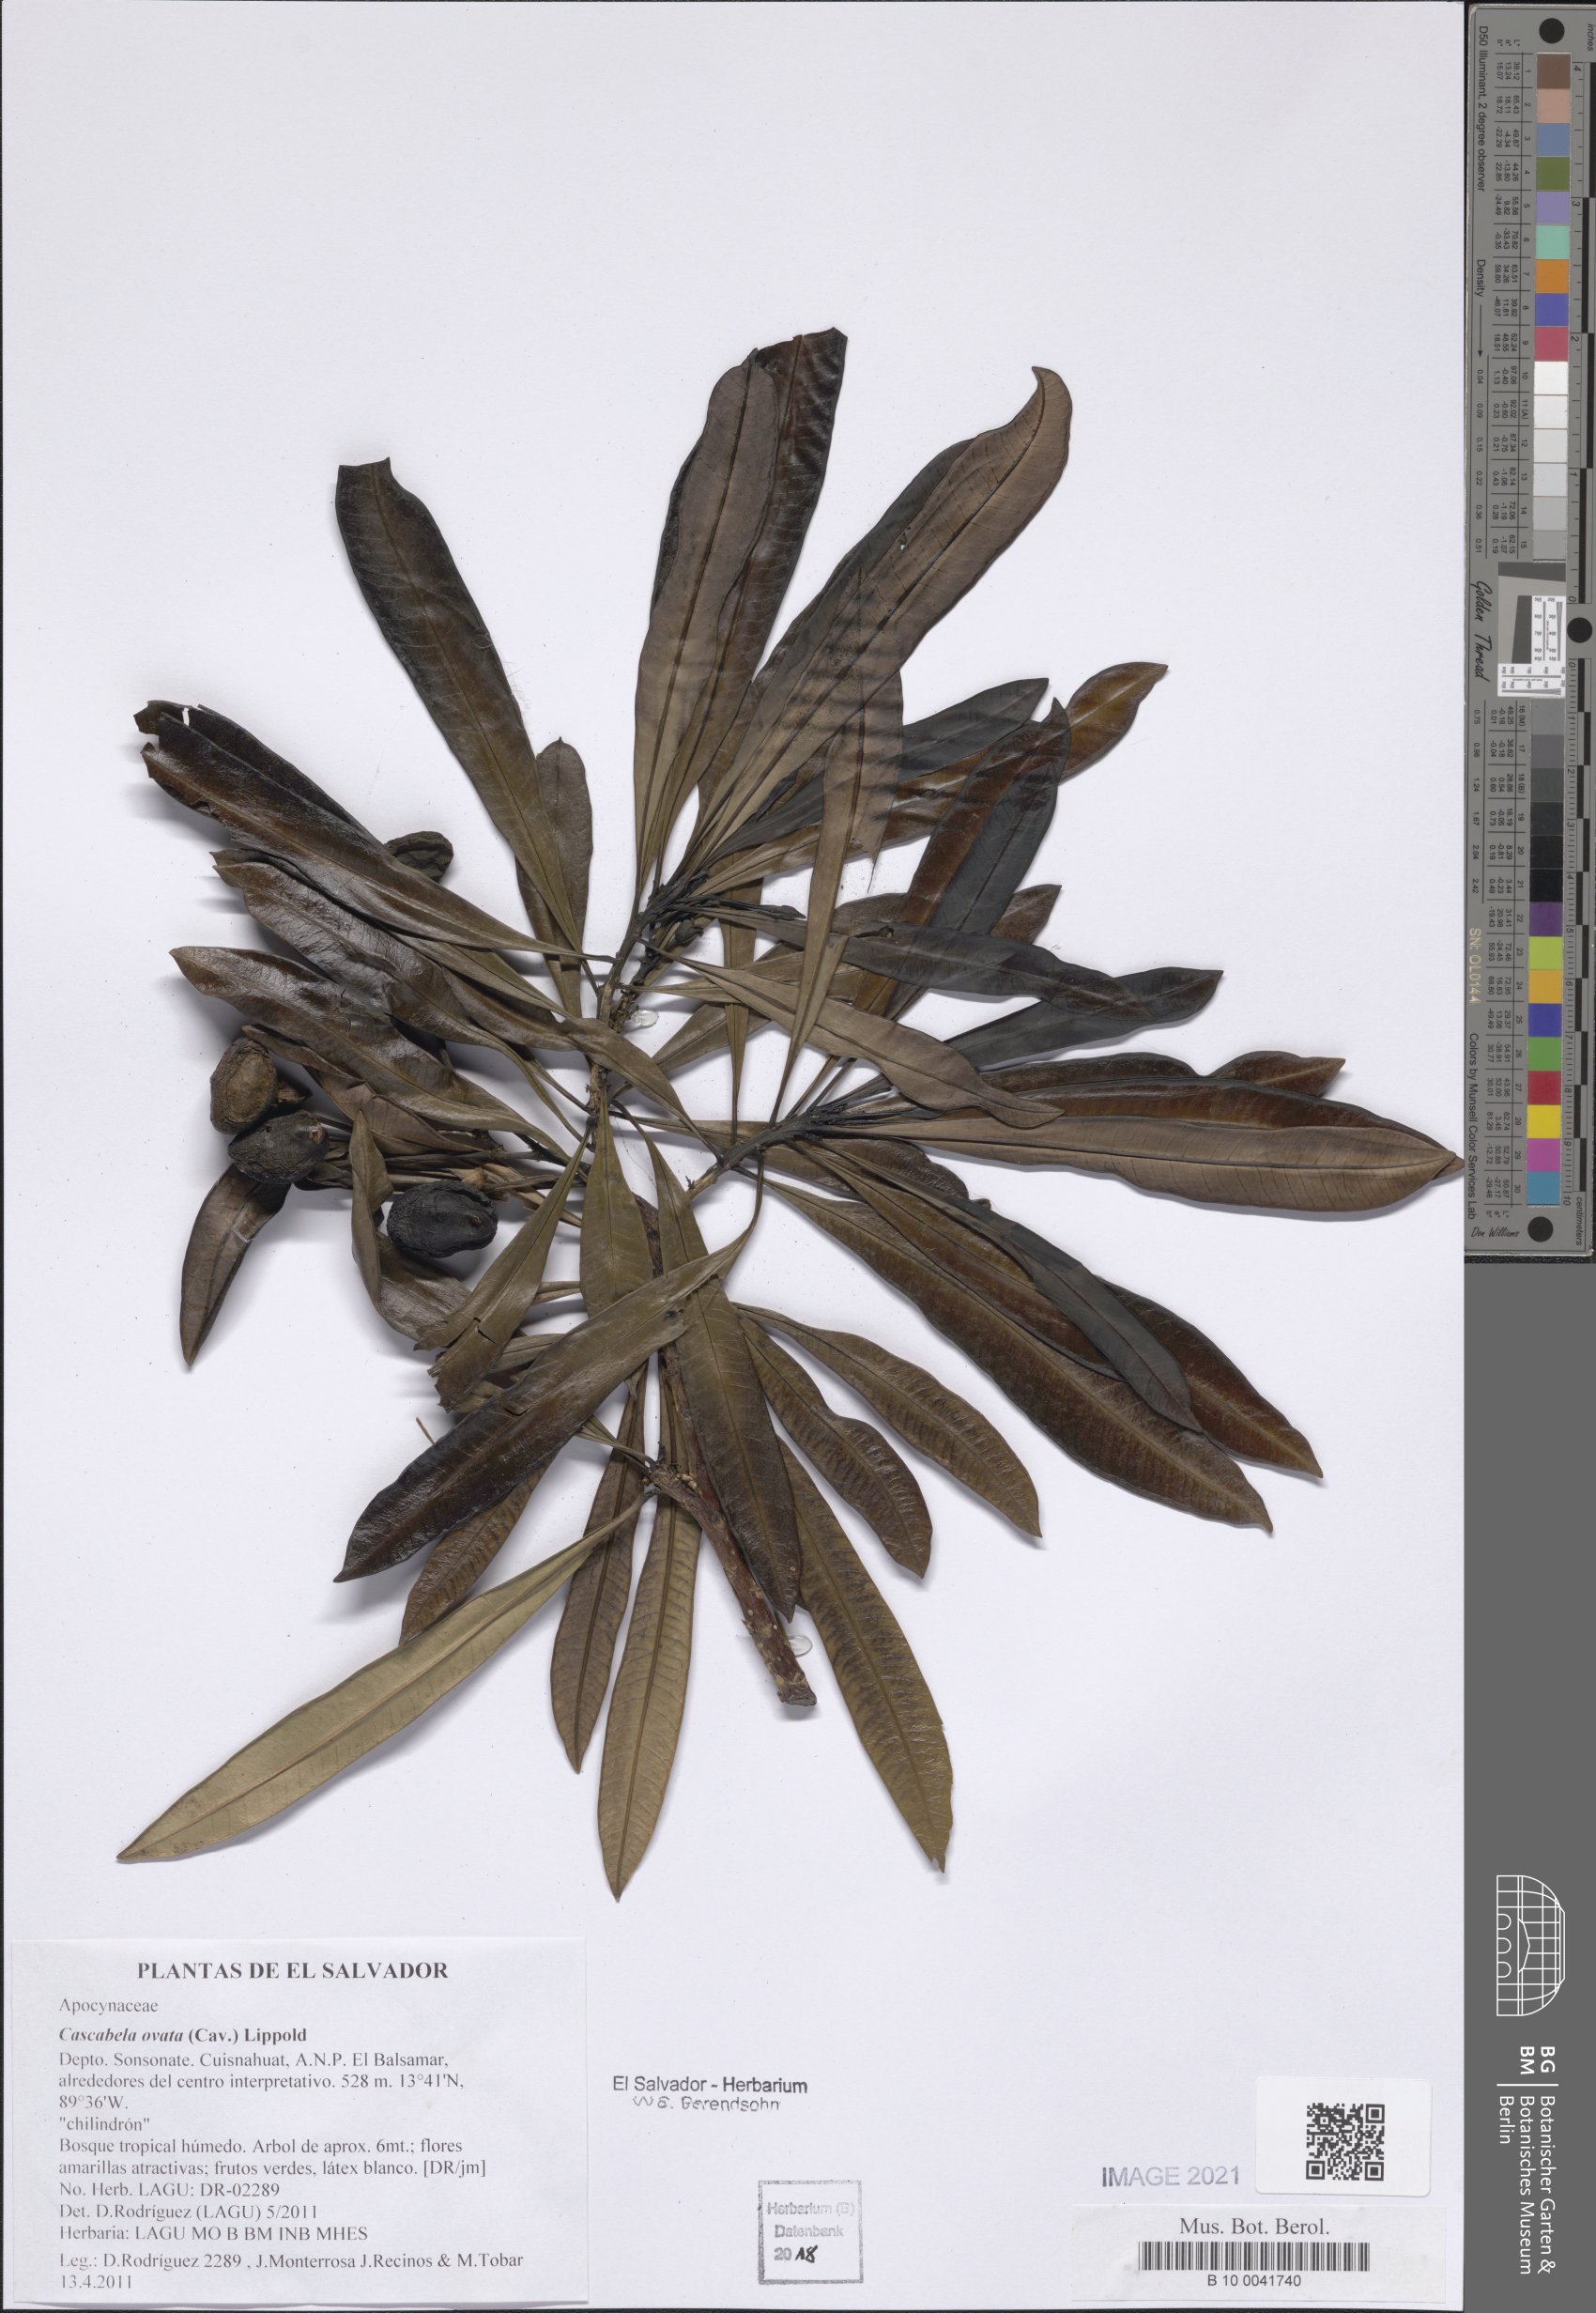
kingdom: Plantae
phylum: Tracheophyta
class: Magnoliopsida
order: Gentianales
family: Apocynaceae
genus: Cascabela
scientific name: Cascabela ovata
